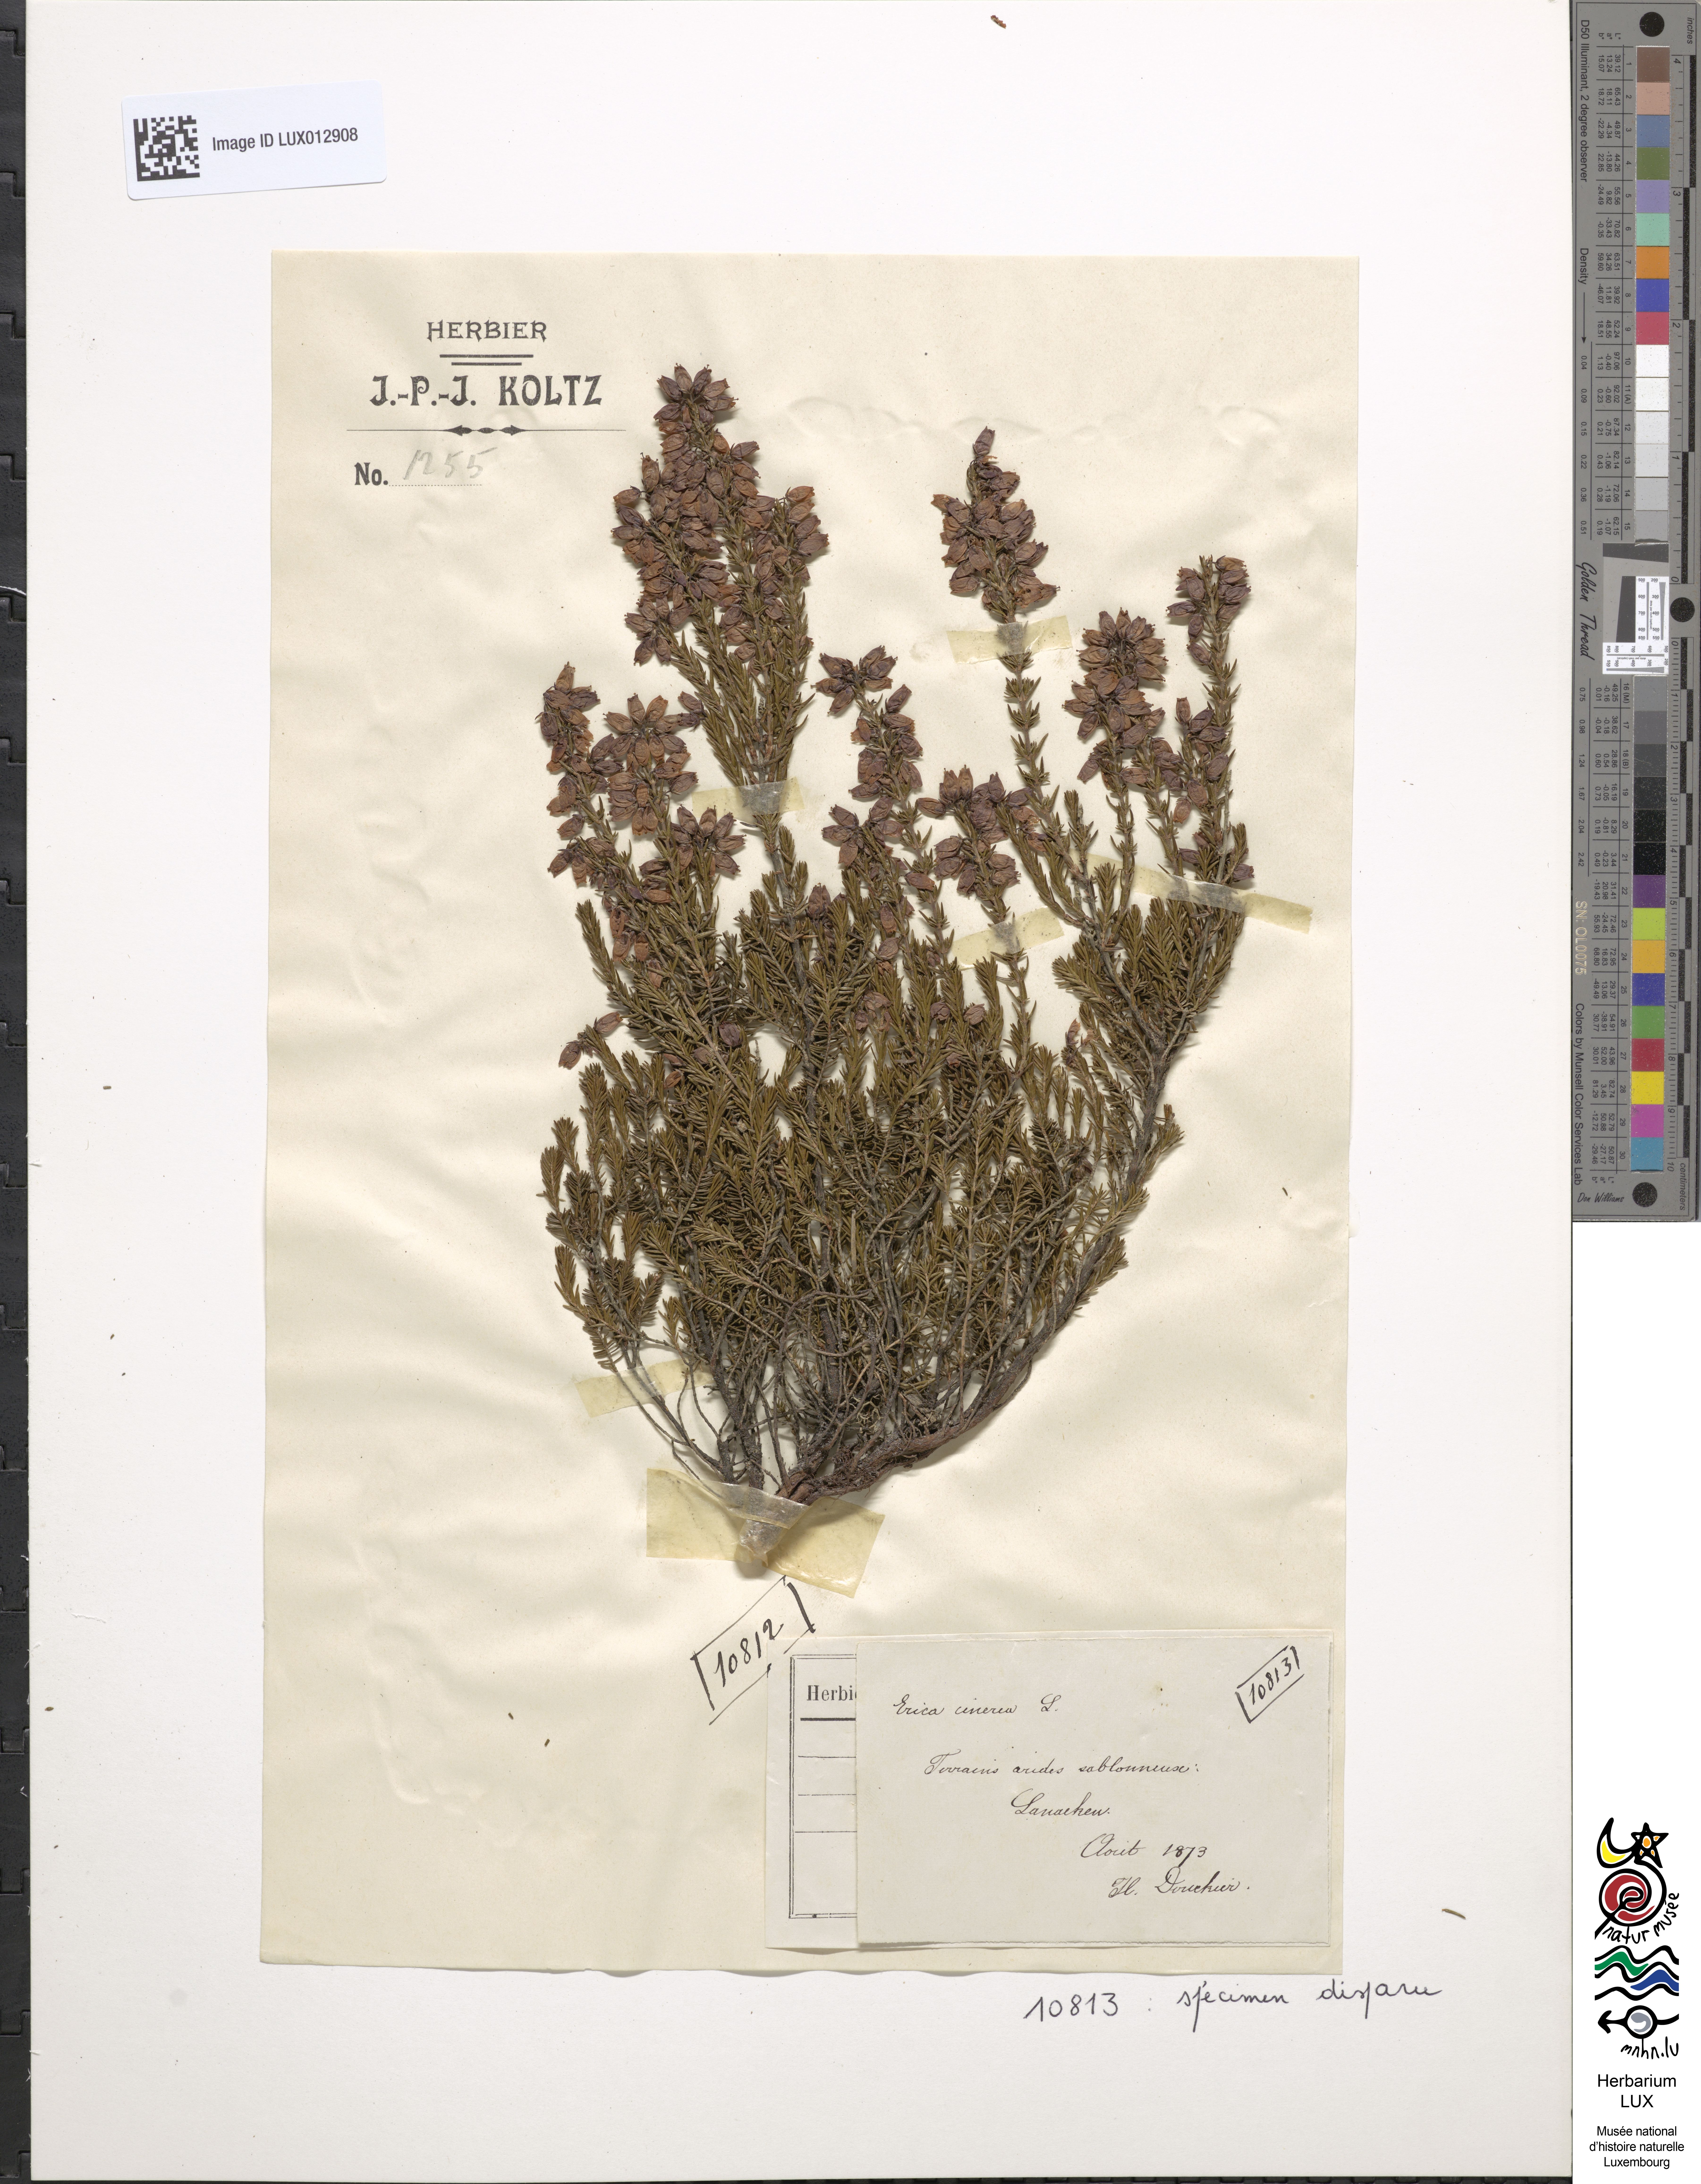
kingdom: Plantae
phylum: Tracheophyta
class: Magnoliopsida
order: Ericales
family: Ericaceae
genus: Erica
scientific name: Erica cinerea
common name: Bell heather
